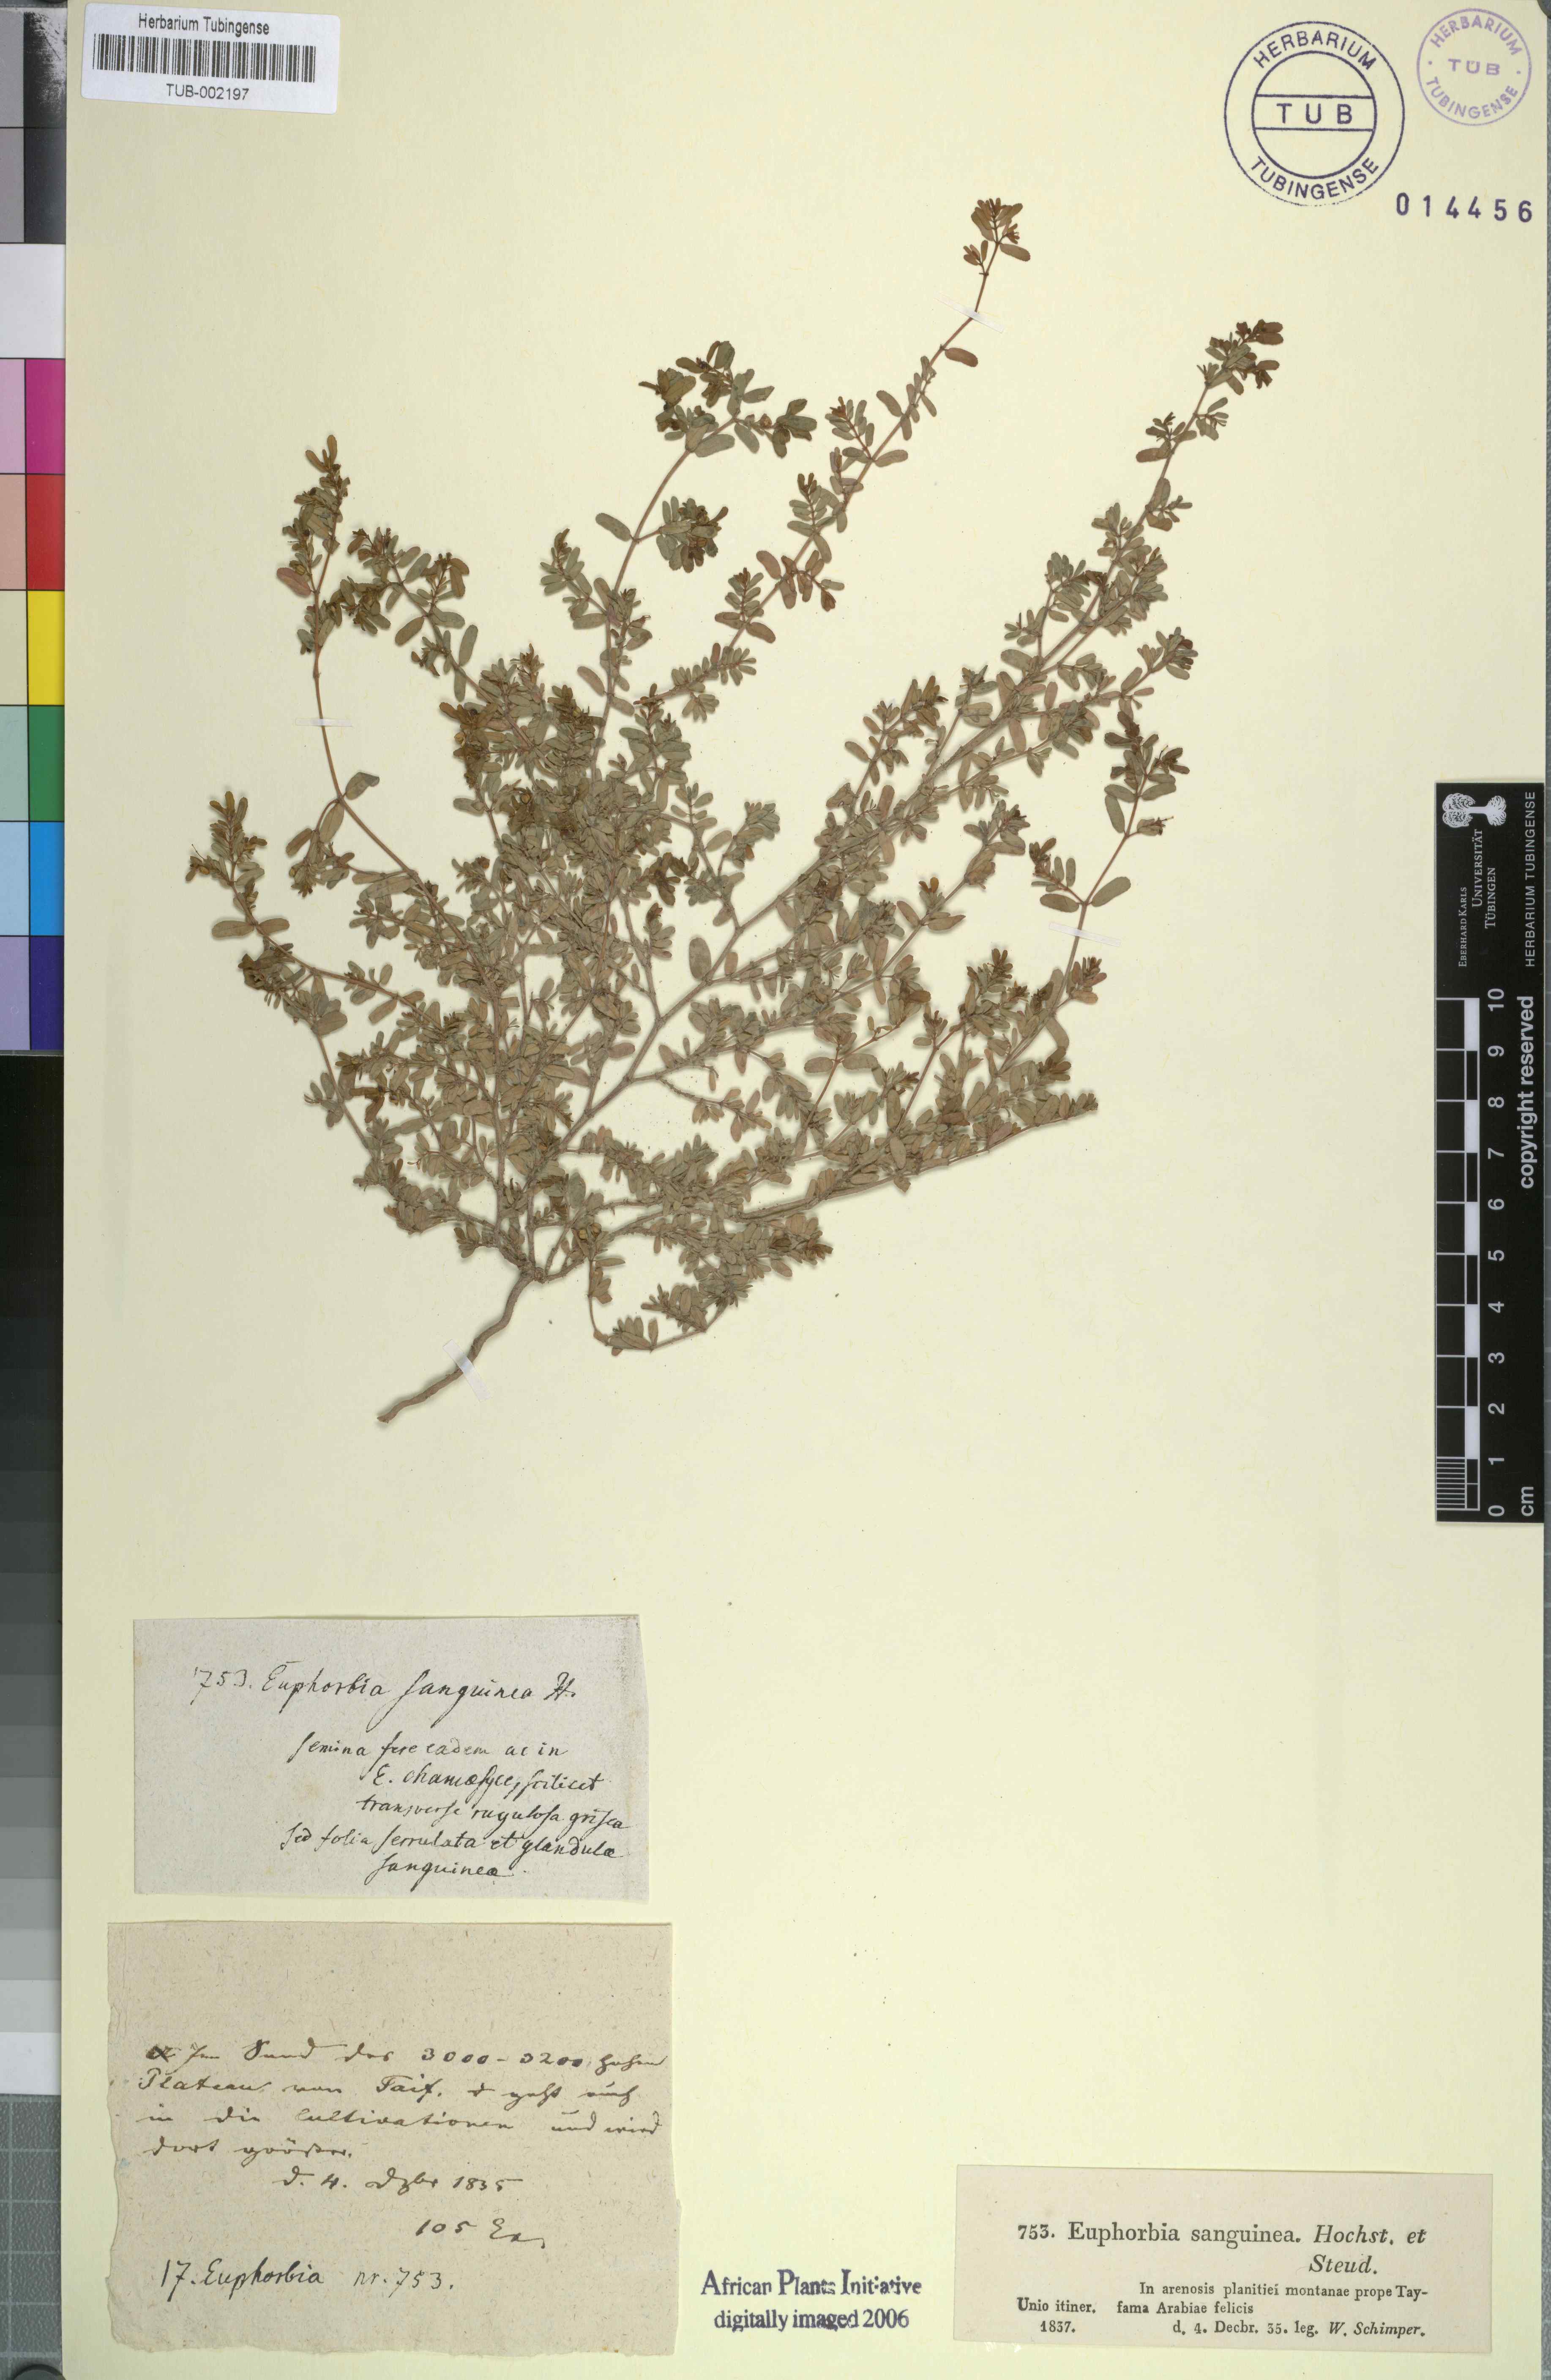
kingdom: Plantae
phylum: Tracheophyta
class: Magnoliopsida
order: Malpighiales
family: Euphorbiaceae
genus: Euphorbia
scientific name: Euphorbia inaequilatera
